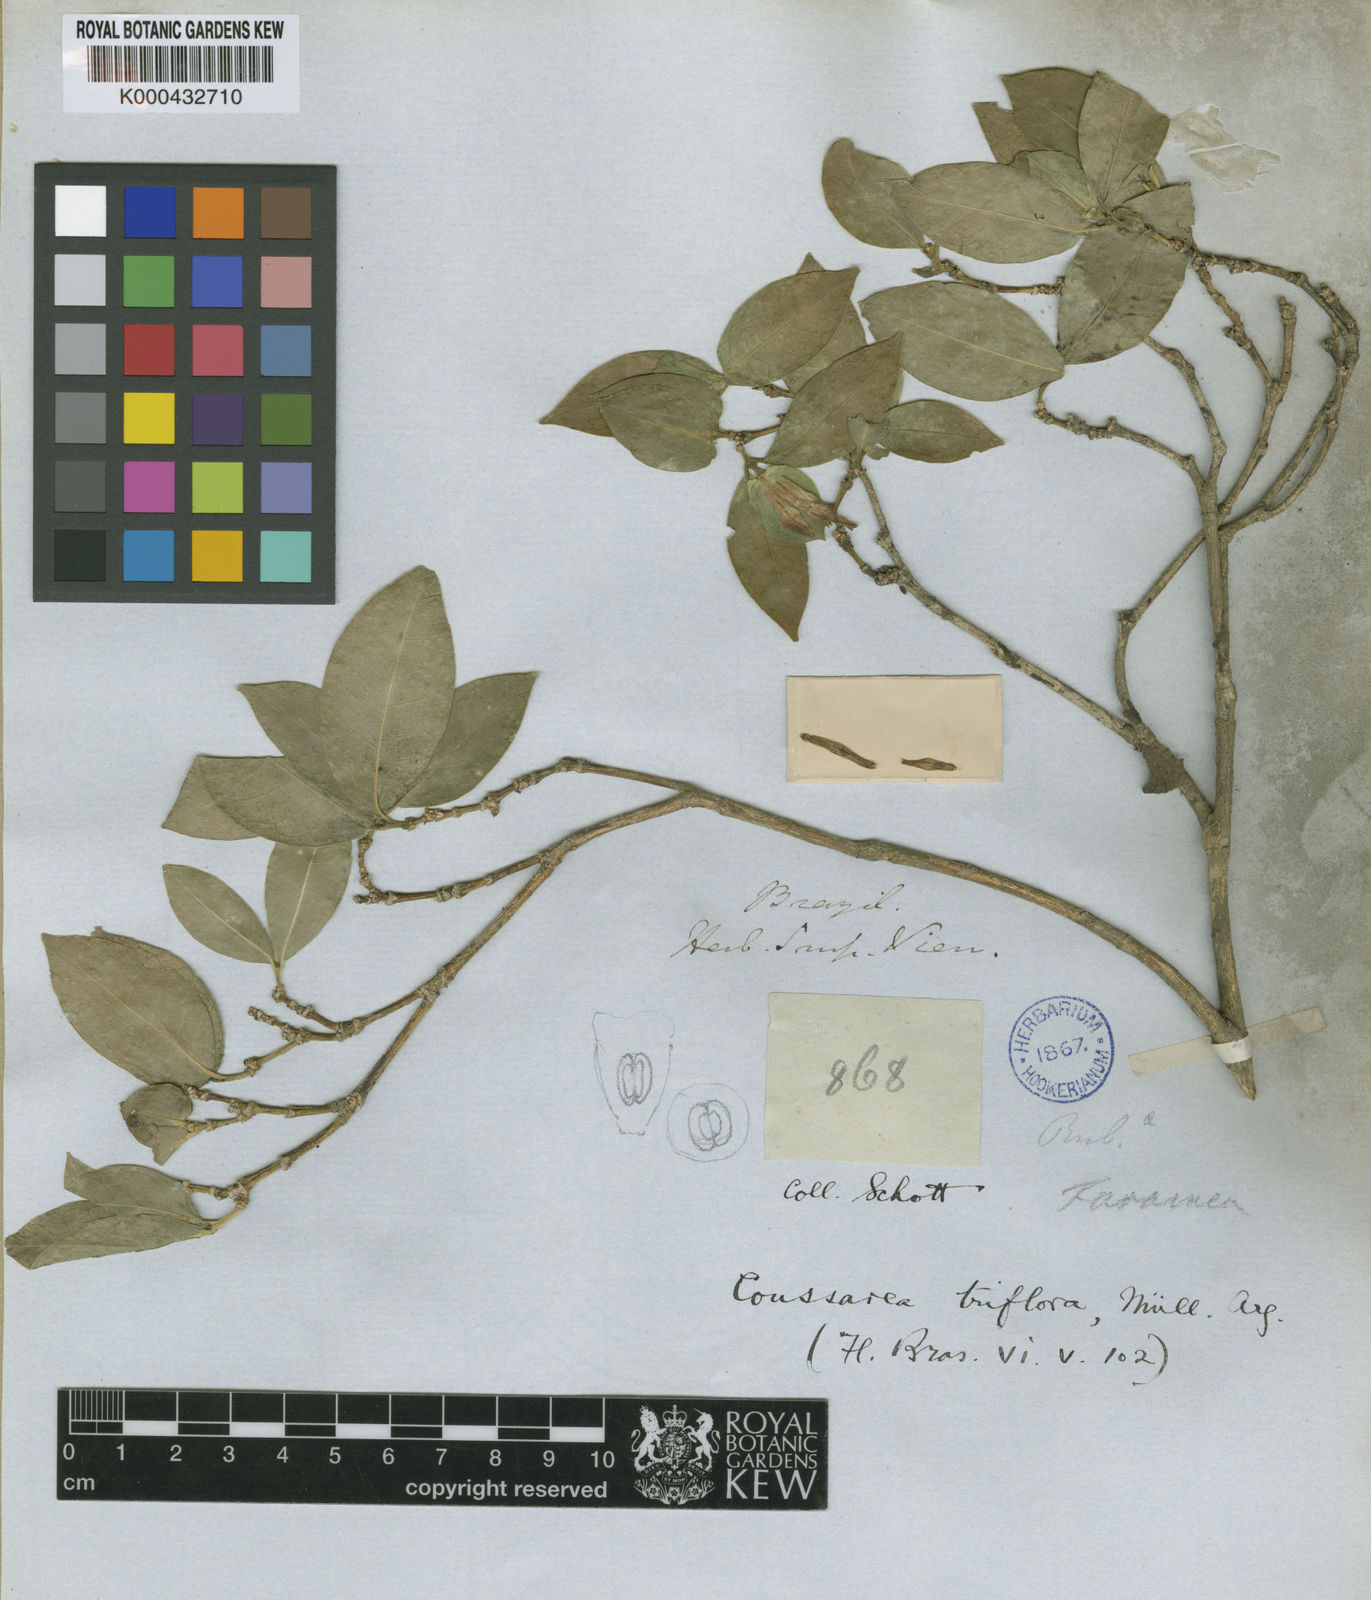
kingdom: Plantae
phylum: Tracheophyta
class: Magnoliopsida
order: Gentianales
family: Rubiaceae
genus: Coussarea
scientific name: Coussarea
